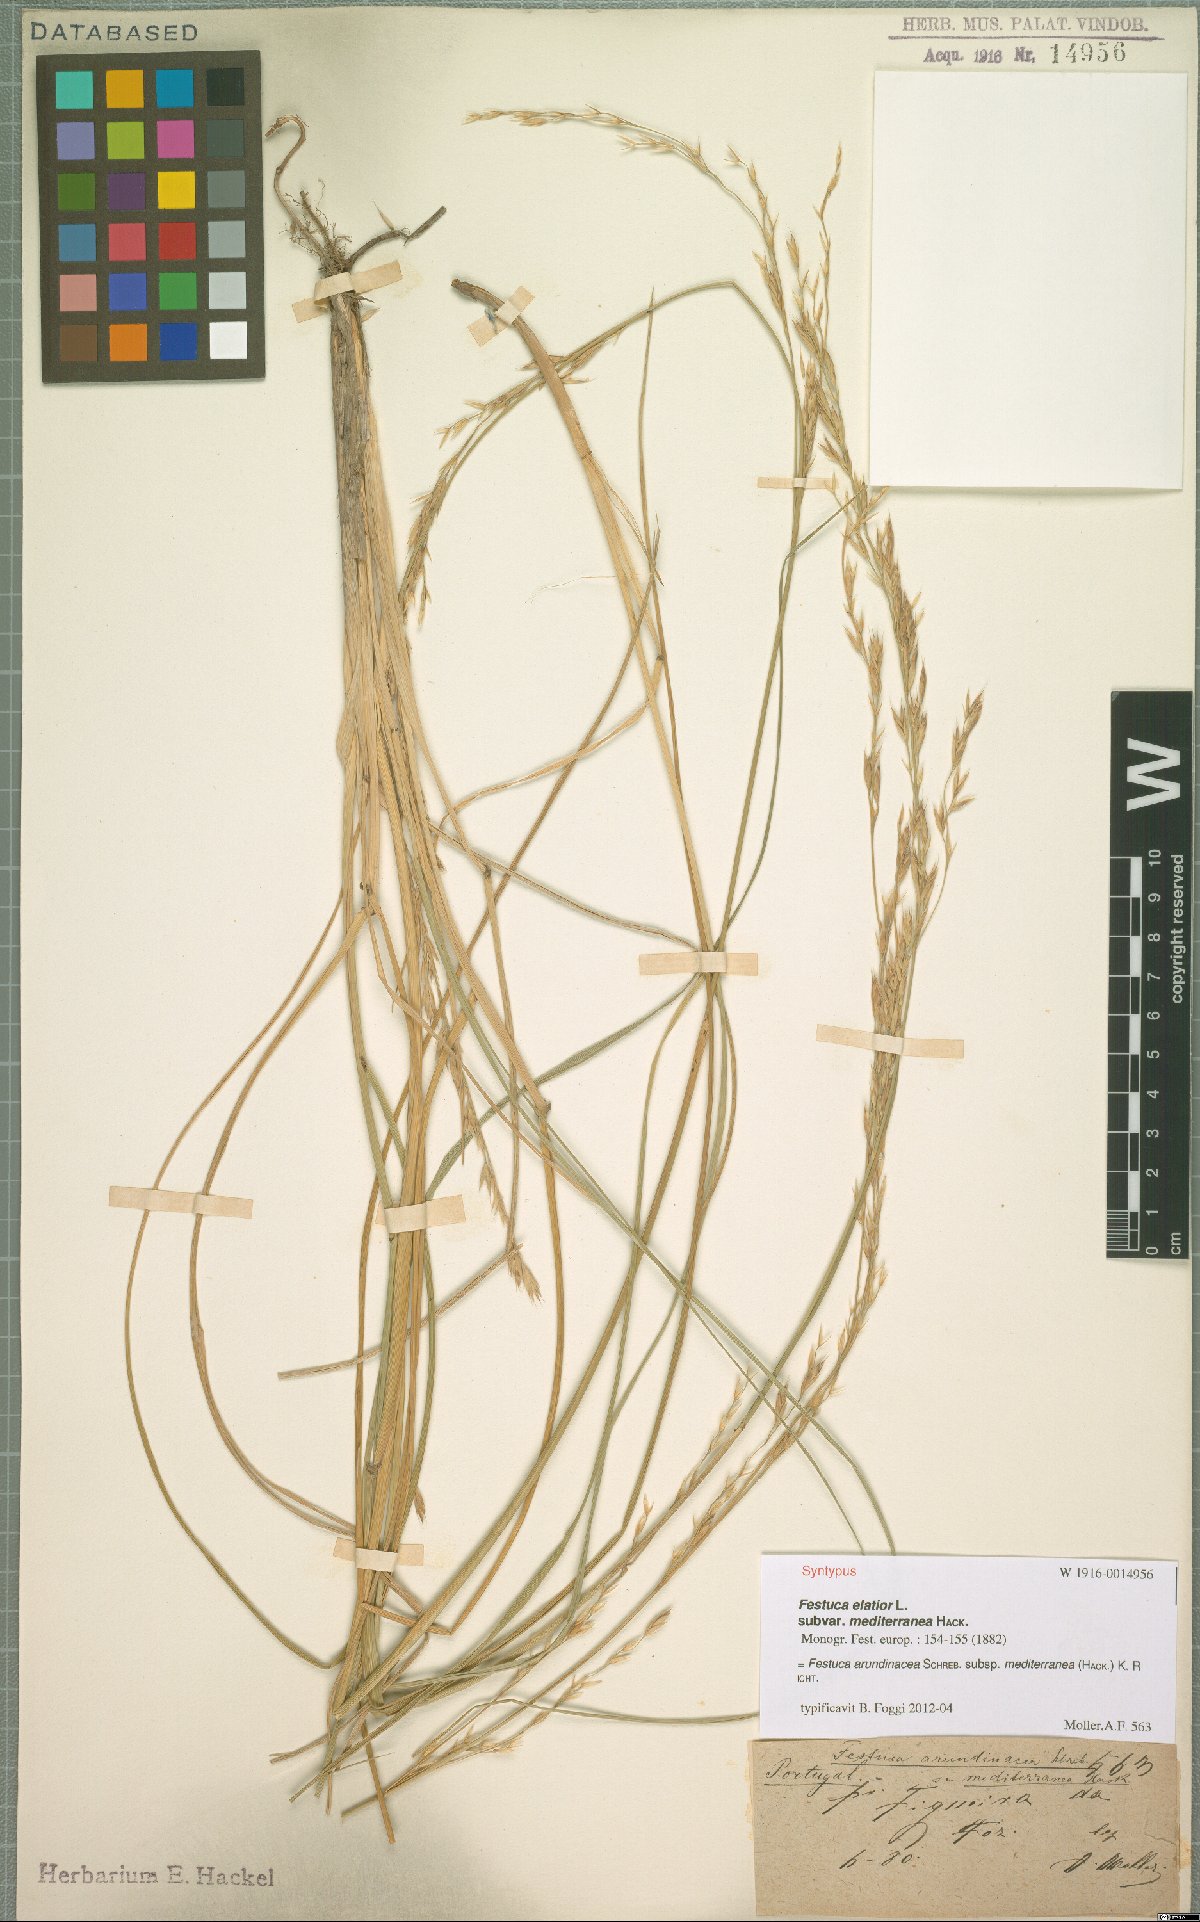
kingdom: Plantae
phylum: Tracheophyta
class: Liliopsida
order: Poales
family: Poaceae
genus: Lolium
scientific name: Lolium mediterraneum
